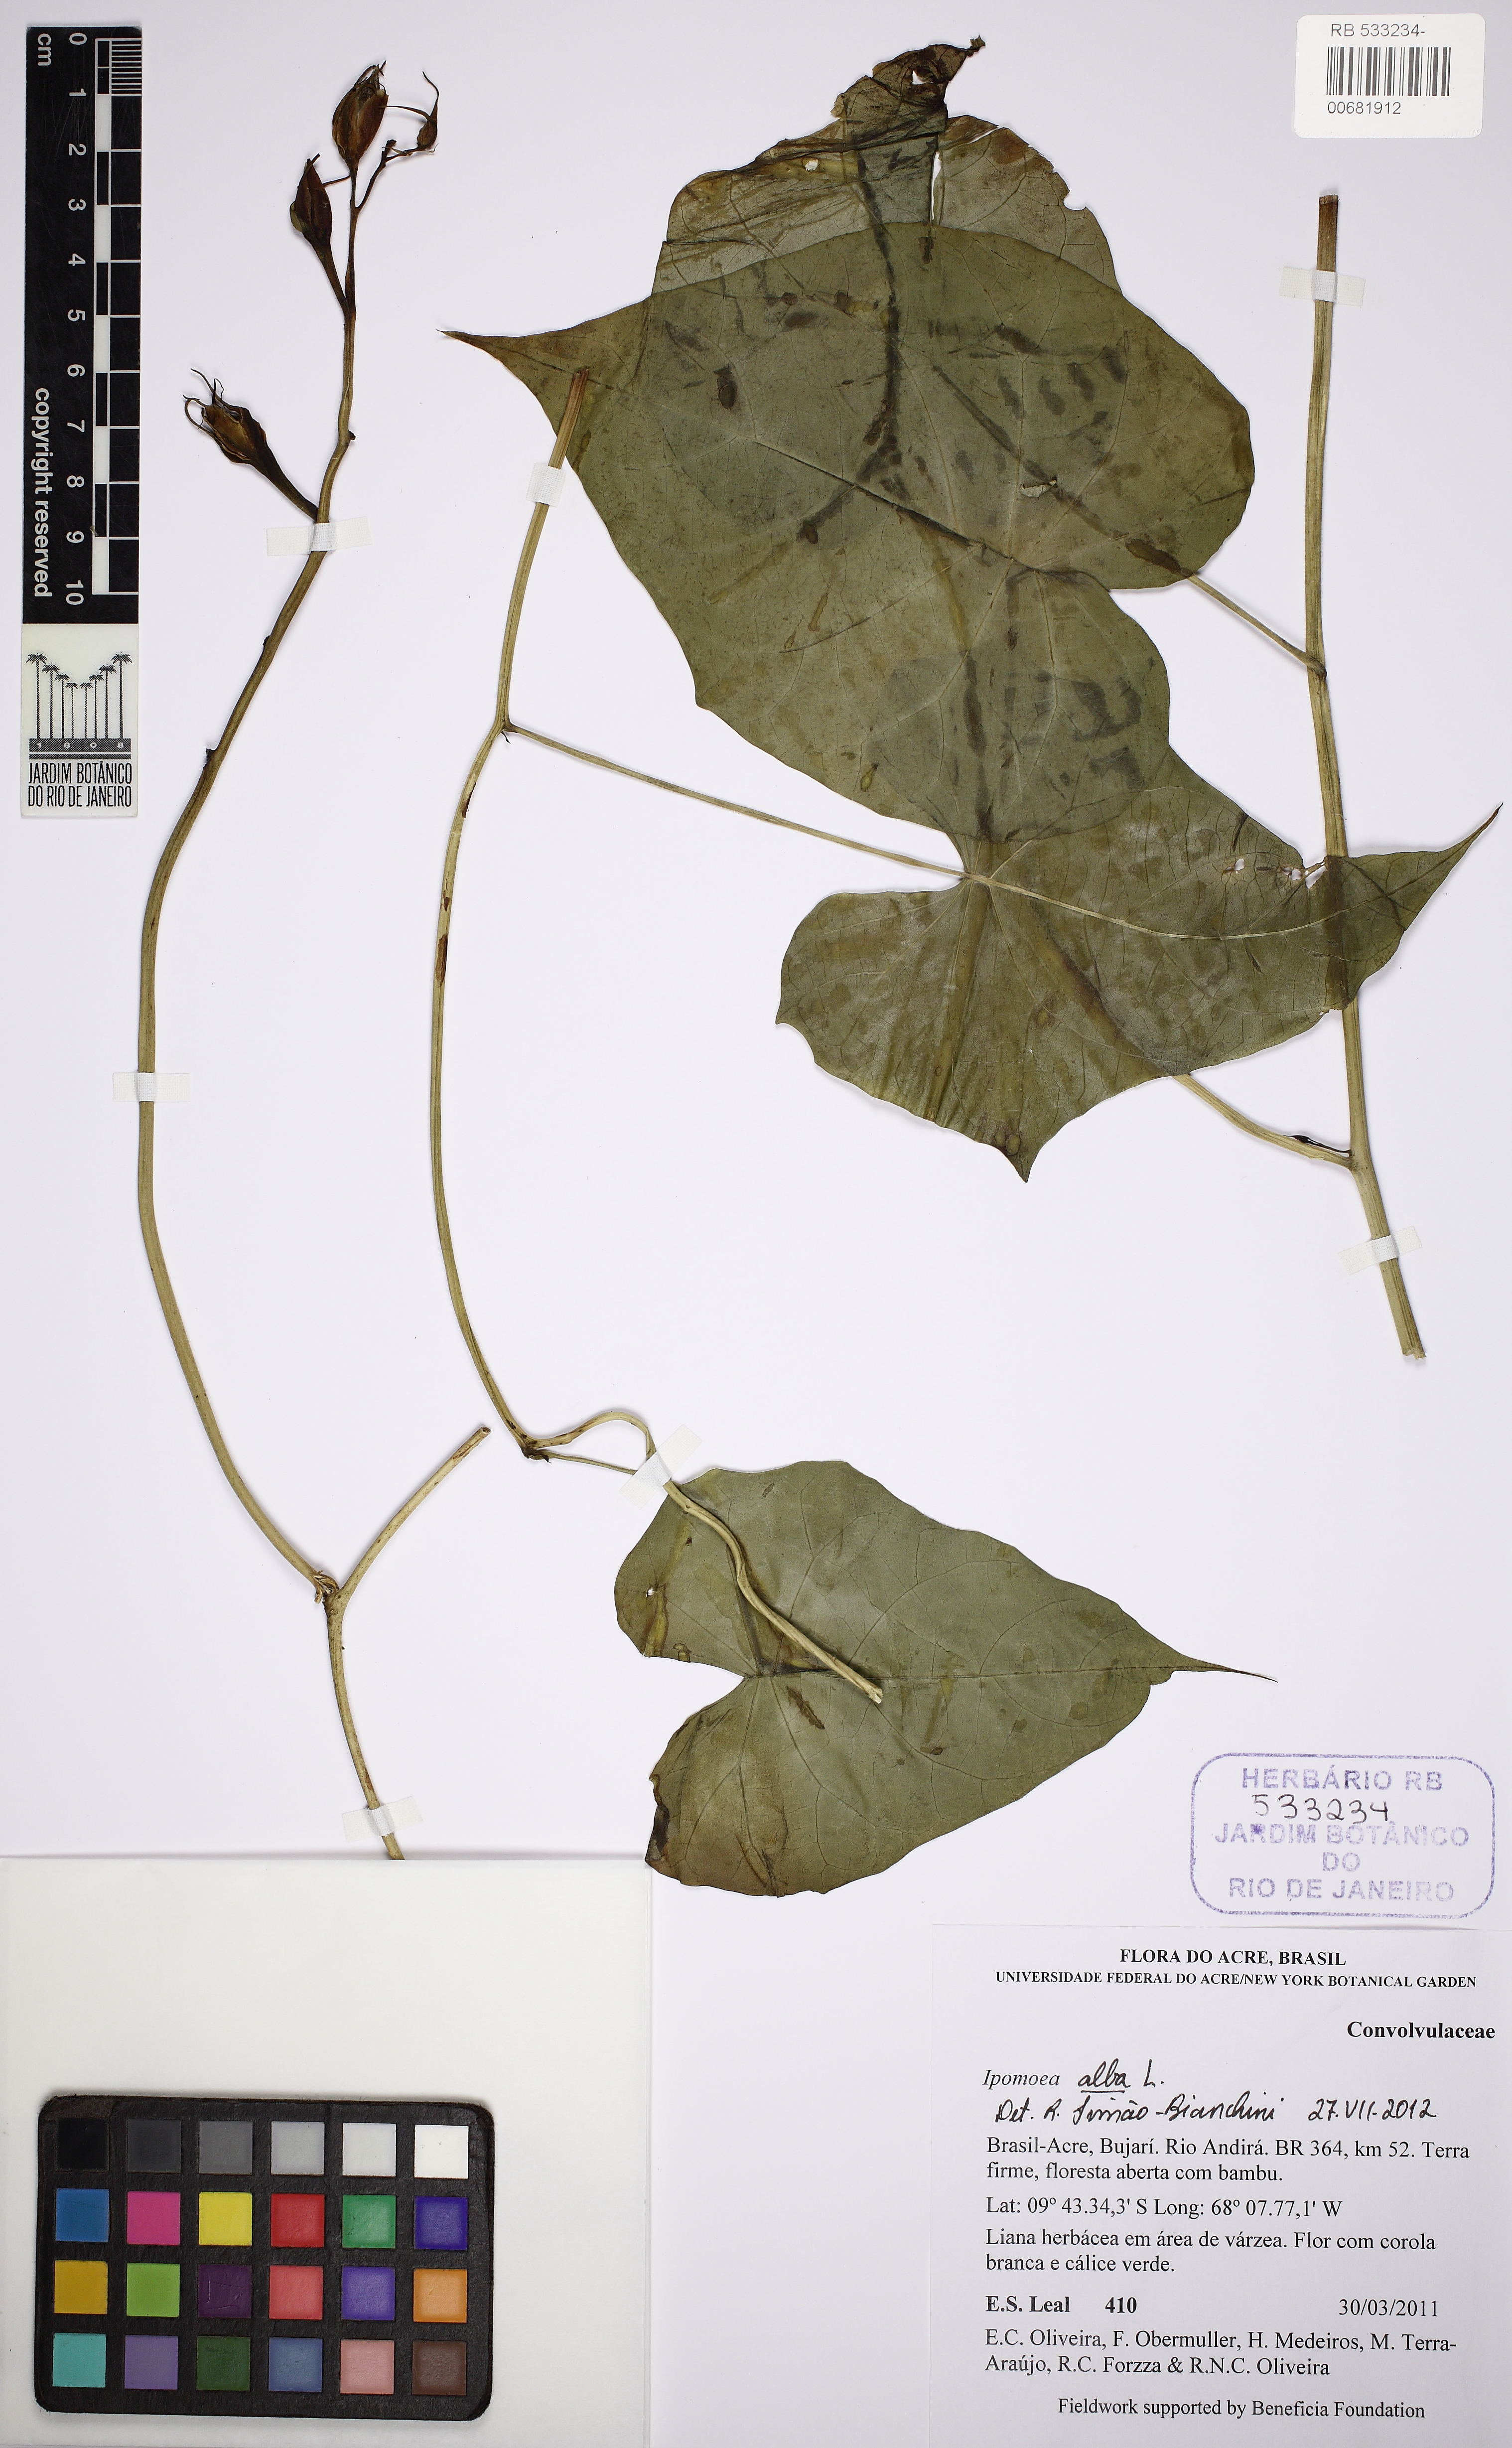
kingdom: Plantae
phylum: Tracheophyta
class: Magnoliopsida
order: Solanales
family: Convolvulaceae
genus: Ipomoea
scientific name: Ipomoea alba
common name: Moonflower
